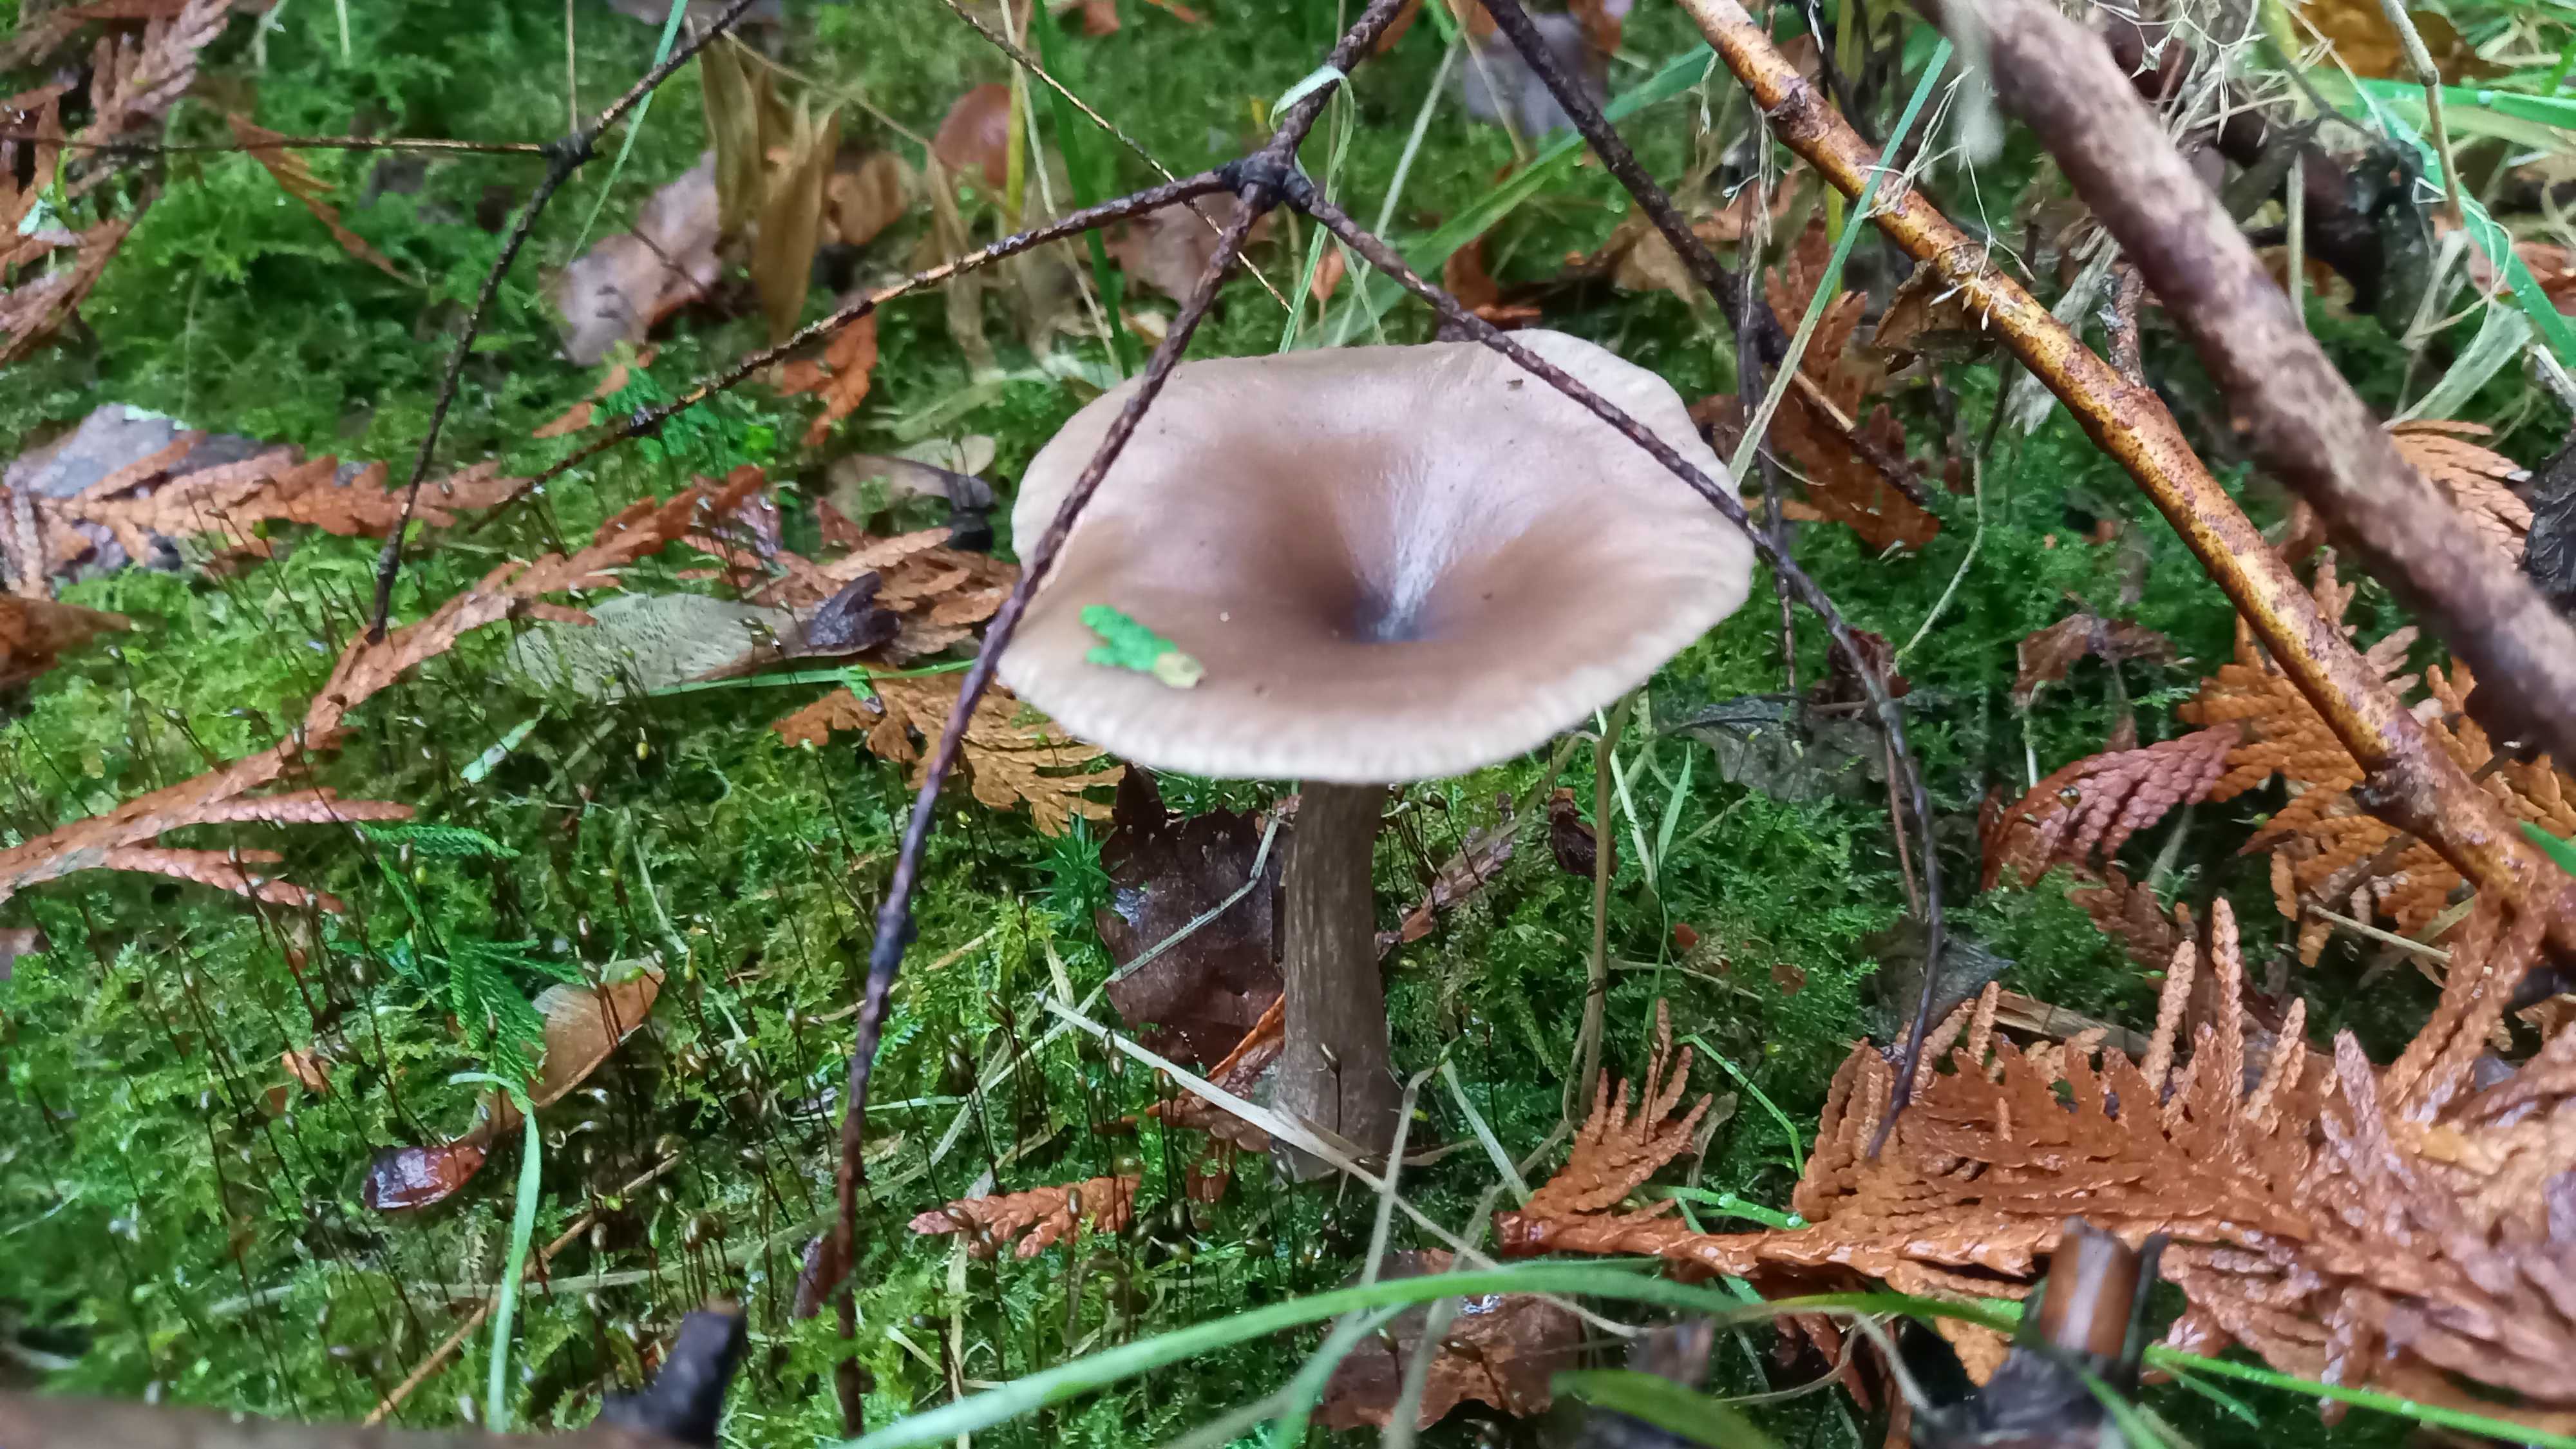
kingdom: Fungi
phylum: Basidiomycota
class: Agaricomycetes
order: Agaricales
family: Pseudoclitocybaceae
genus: Pseudoclitocybe
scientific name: Pseudoclitocybe cyathiformis
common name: almindelig bægertragthat
